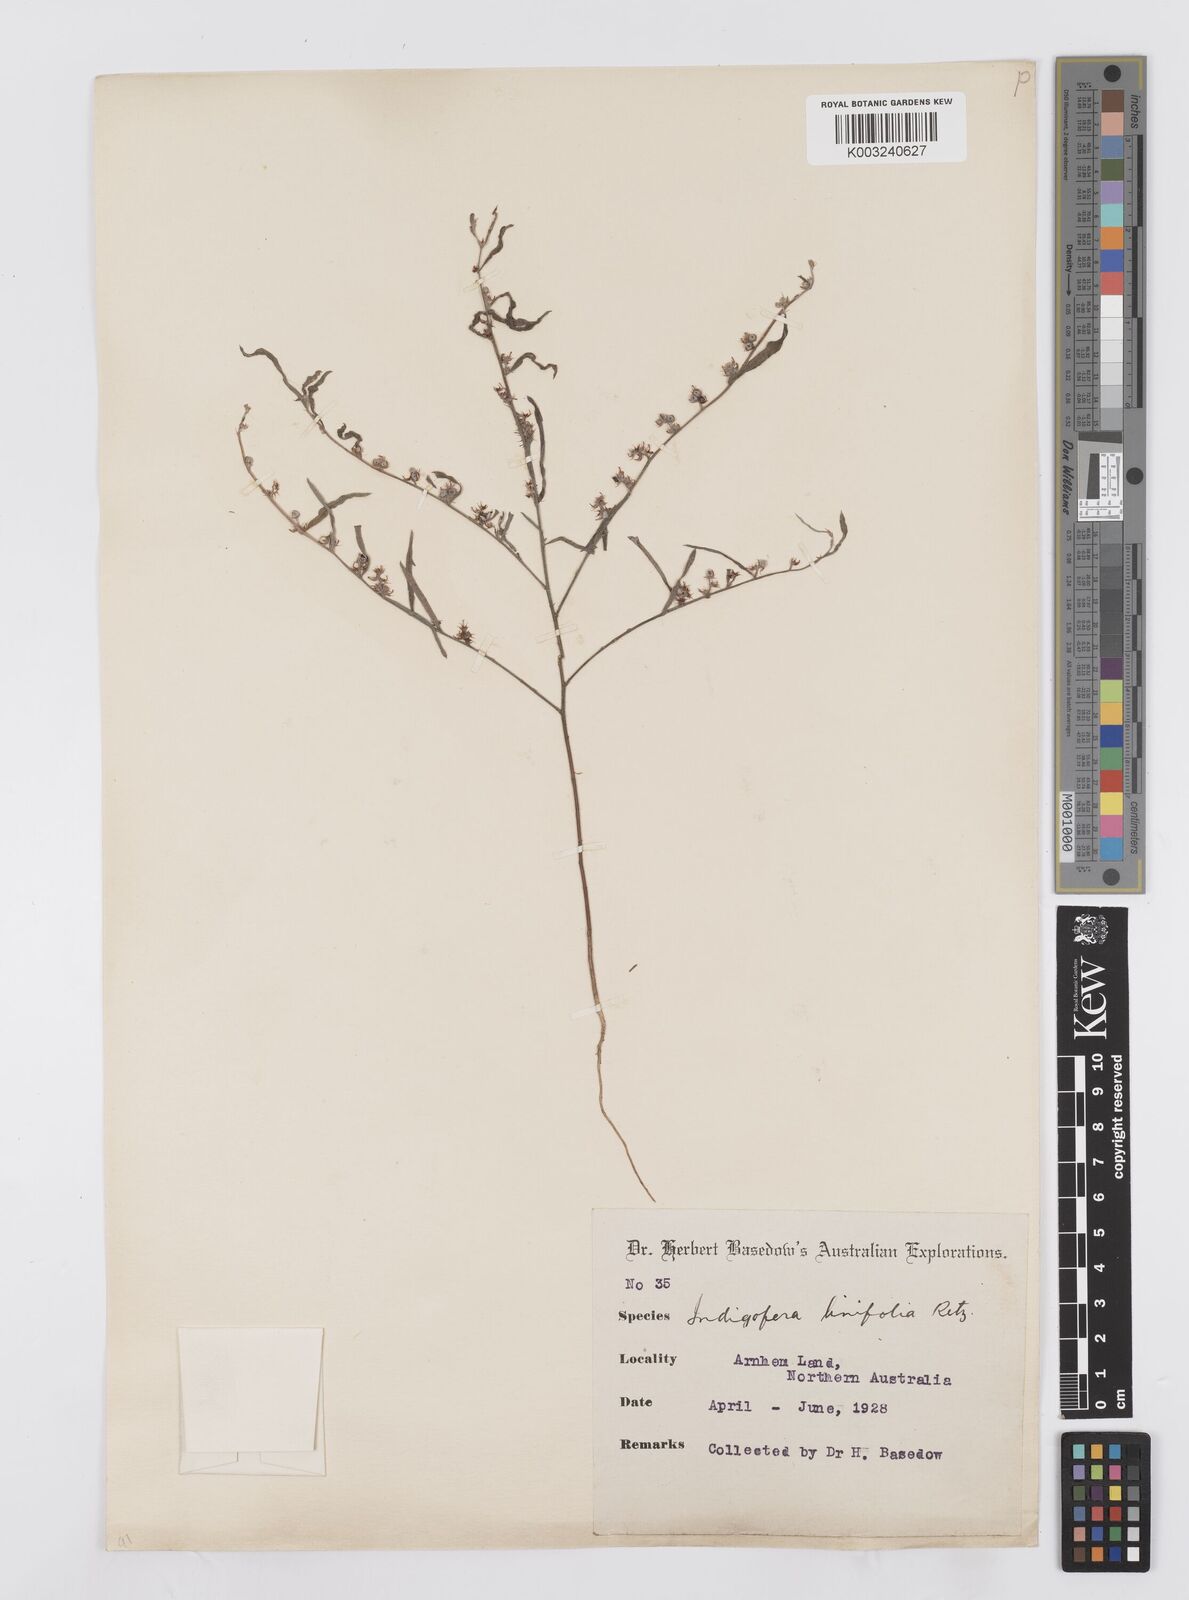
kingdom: Plantae
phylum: Tracheophyta
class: Magnoliopsida
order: Fabales
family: Fabaceae
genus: Indigofera
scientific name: Indigofera linifolia
